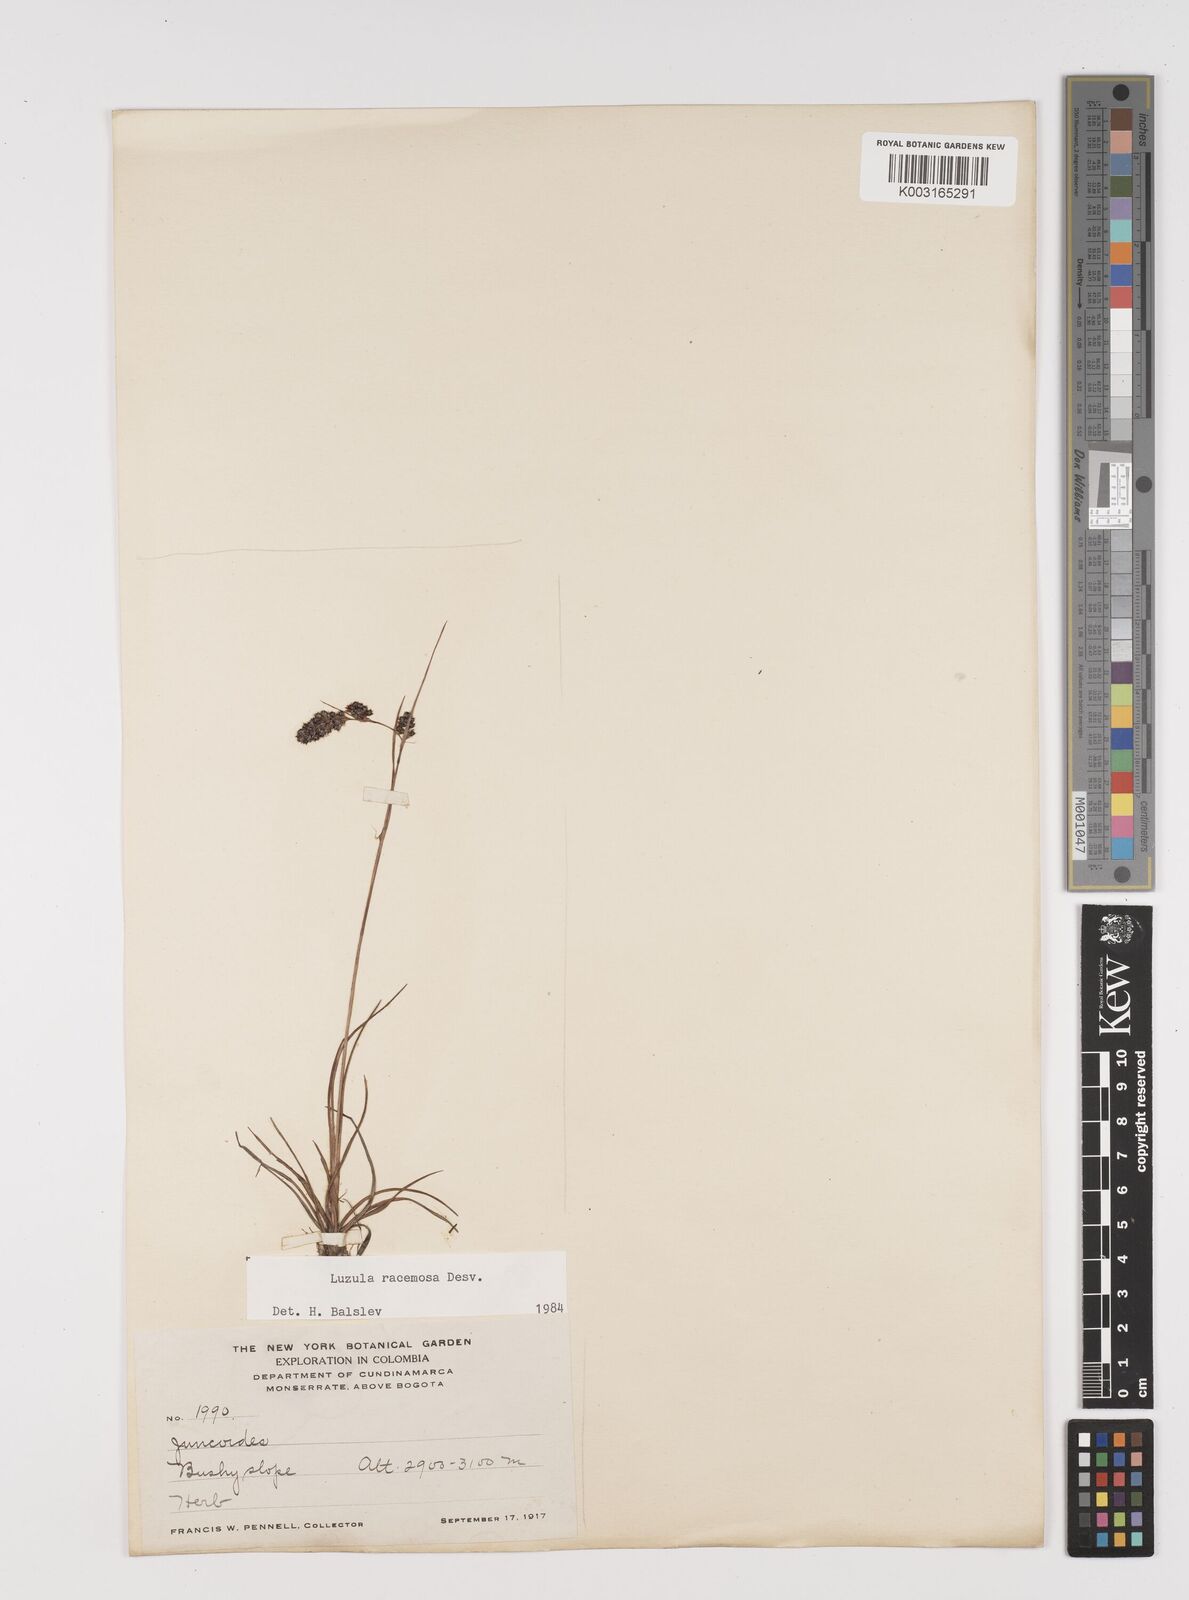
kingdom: Plantae
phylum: Tracheophyta
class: Liliopsida
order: Poales
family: Juncaceae
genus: Luzula
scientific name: Luzula racemosa
